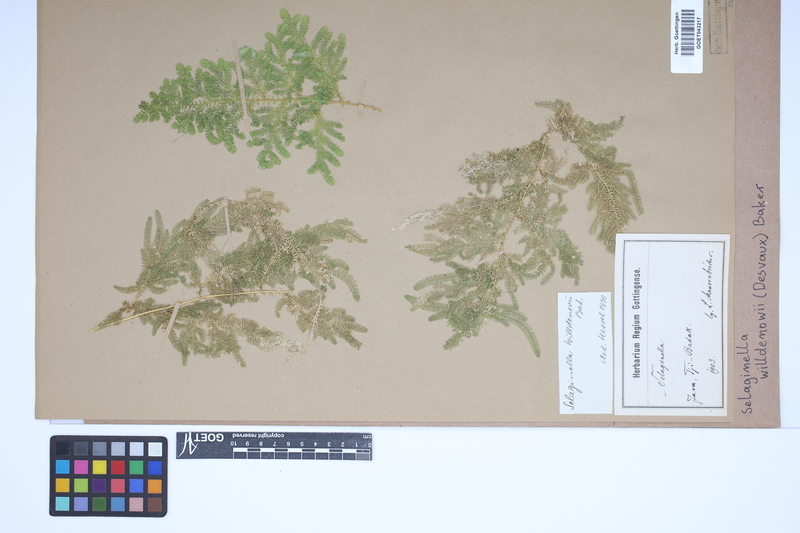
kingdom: Plantae
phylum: Tracheophyta
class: Lycopodiopsida
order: Selaginellales
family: Selaginellaceae
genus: Selaginella
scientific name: Selaginella willdenowii
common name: Willdenow's spikemoss
